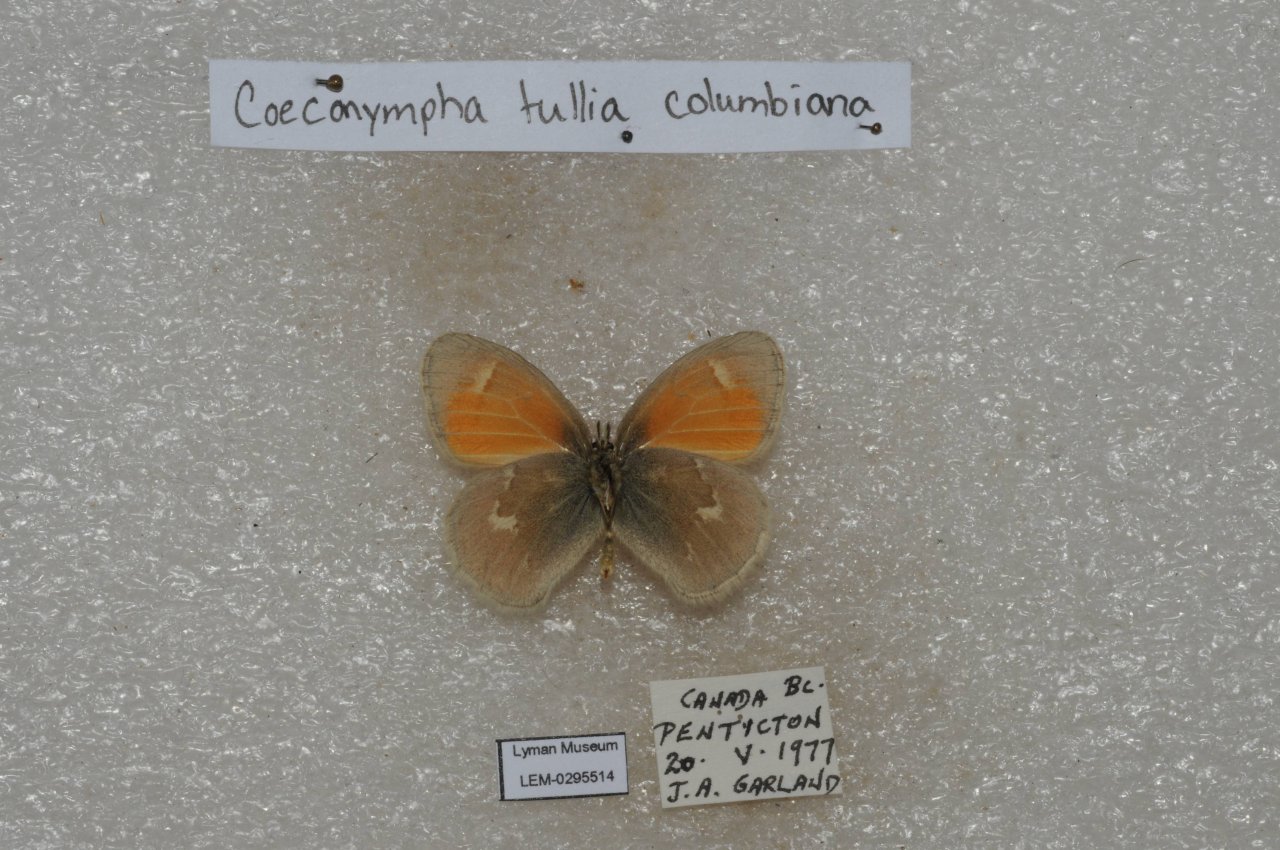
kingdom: Animalia
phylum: Arthropoda
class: Insecta
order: Lepidoptera
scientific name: Lepidoptera
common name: Butterflies
